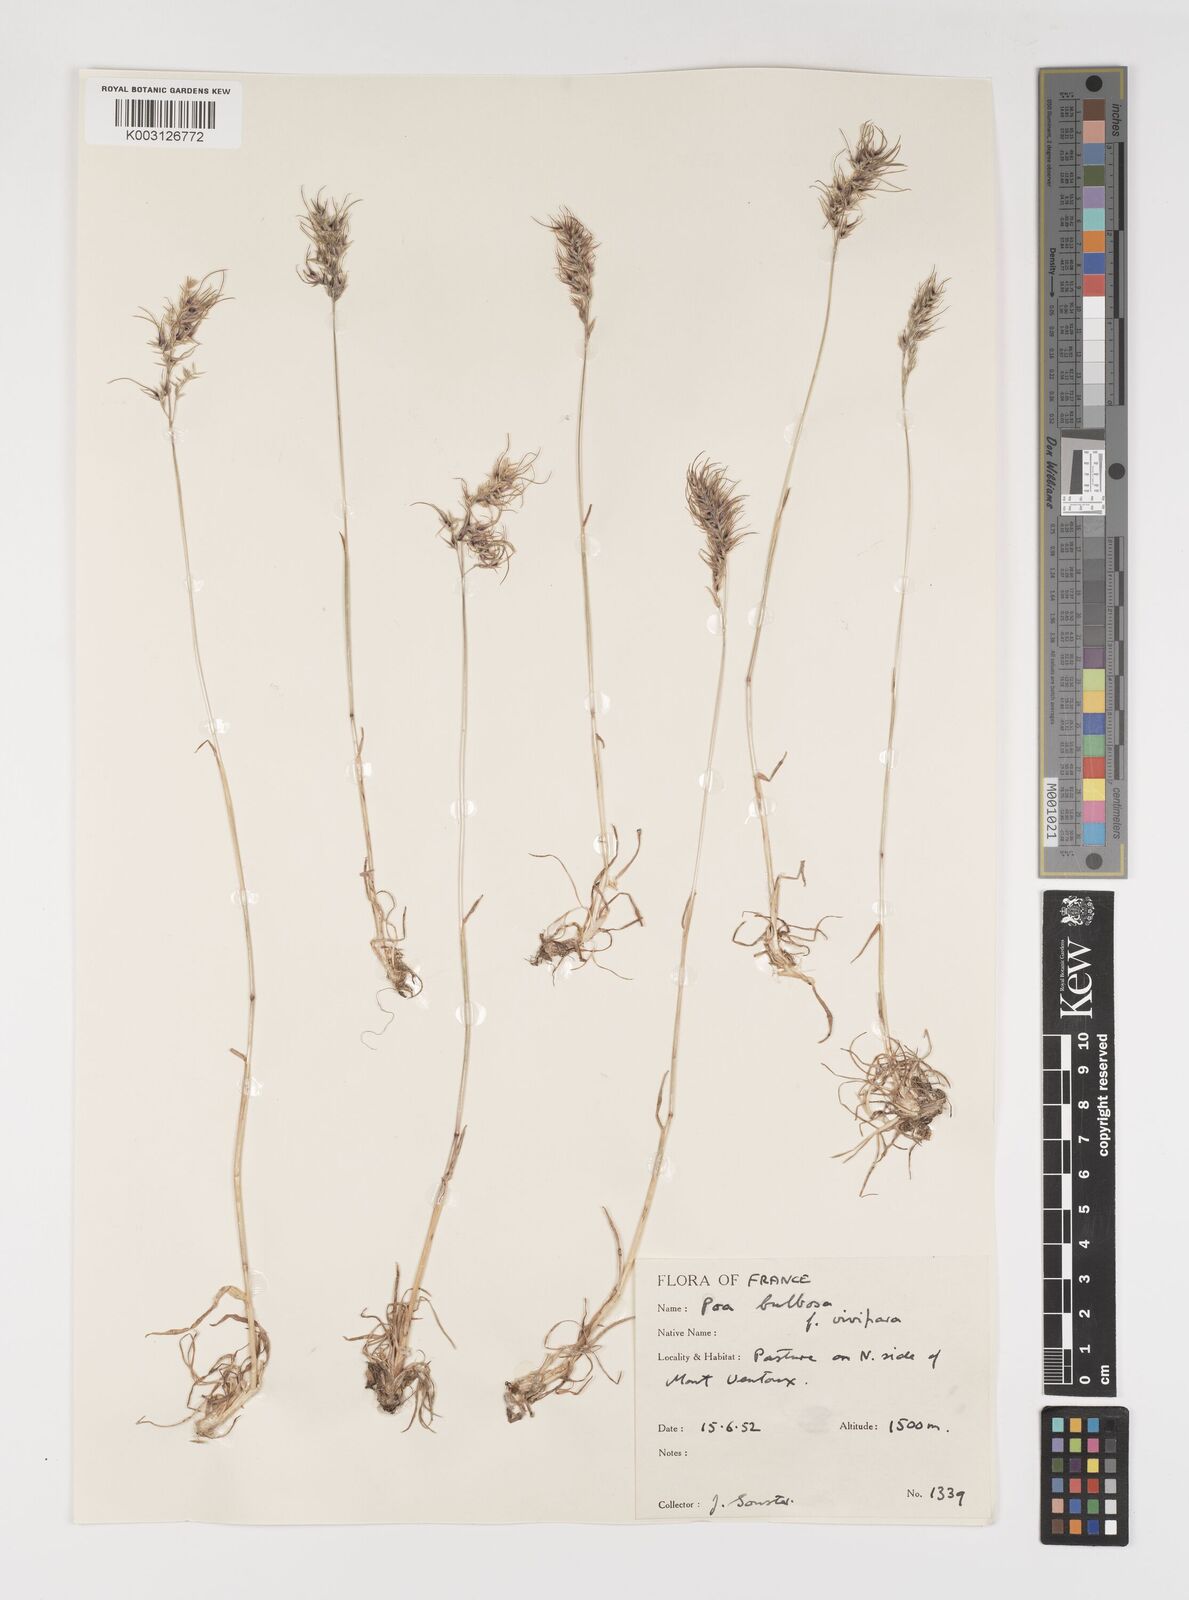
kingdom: Plantae
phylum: Tracheophyta
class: Liliopsida
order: Poales
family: Poaceae
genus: Poa
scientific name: Poa bulbosa
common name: Bulbous bluegrass
